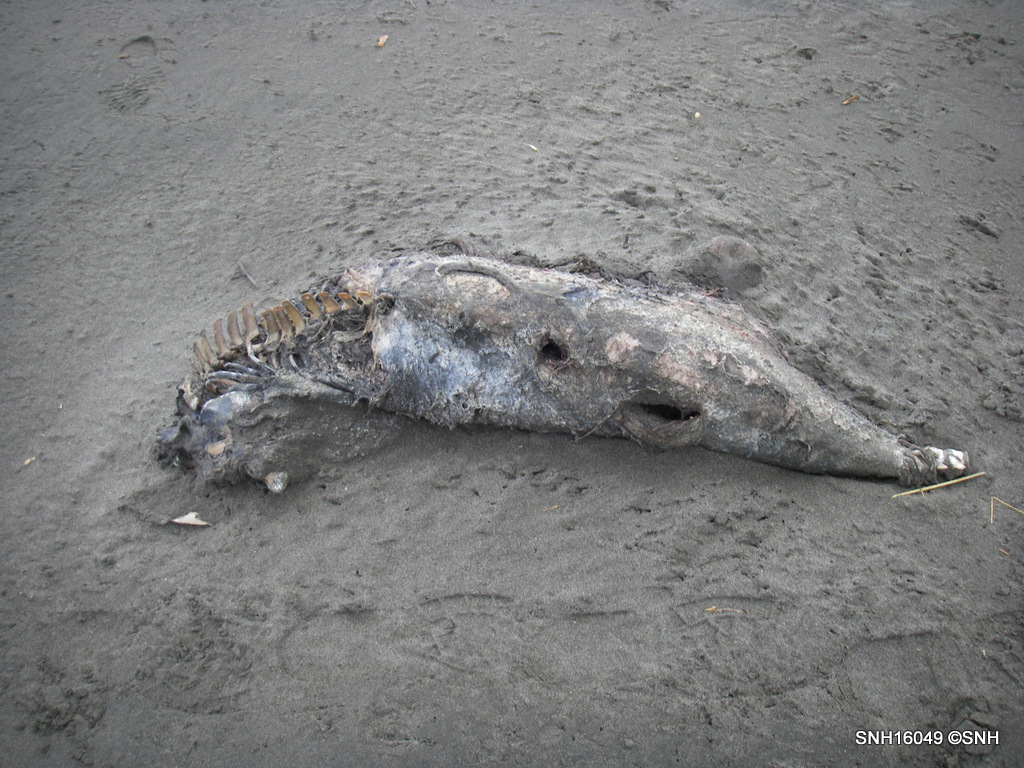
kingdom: Animalia
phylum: Chordata
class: Mammalia
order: Cetacea
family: Phocoenidae
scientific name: Phocoenidae
